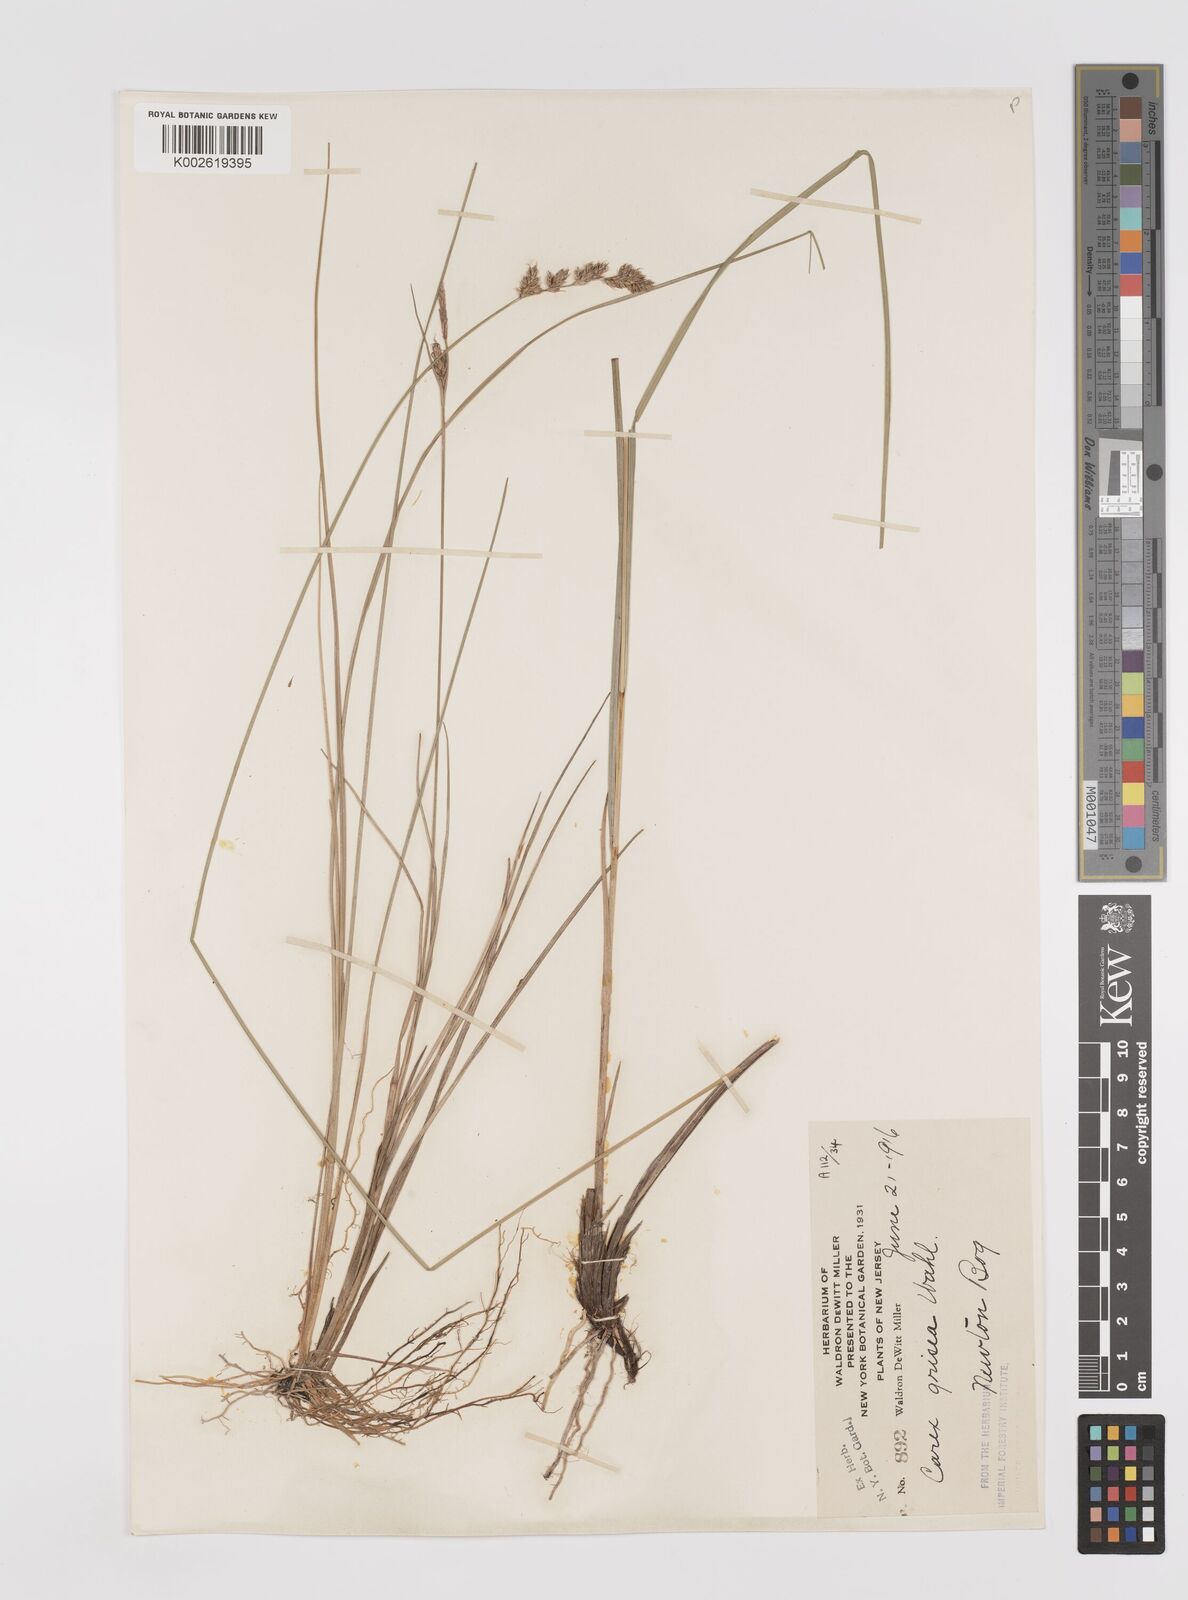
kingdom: Plantae
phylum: Tracheophyta
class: Liliopsida
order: Poales
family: Cyperaceae
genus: Carex
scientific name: Carex grisea
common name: Eastern narrow-leaved sedge
